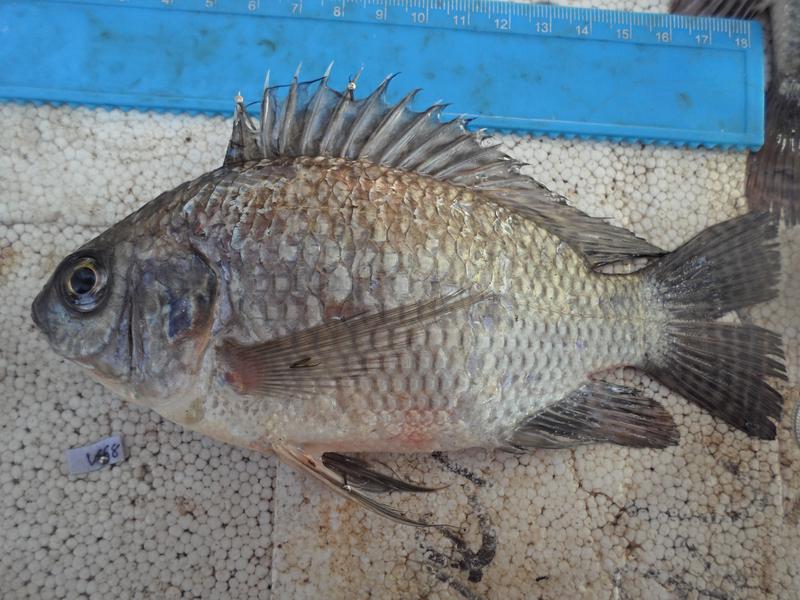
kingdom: Animalia
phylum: Chordata
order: Perciformes
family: Cichlidae
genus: Oreochromis
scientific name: Oreochromis niloticus
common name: Nile tilapia
